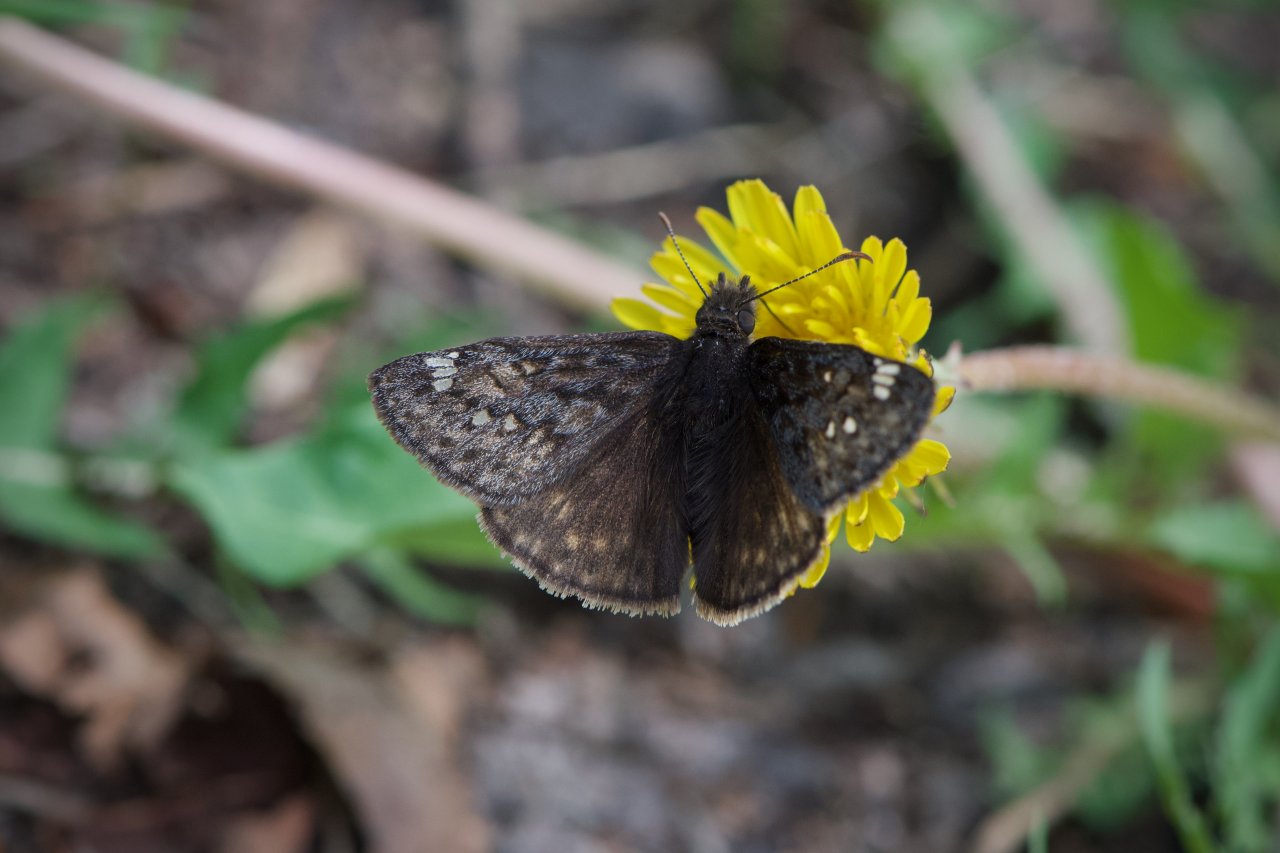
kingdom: Animalia
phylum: Arthropoda
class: Insecta
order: Lepidoptera
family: Hesperiidae
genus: Gesta
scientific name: Gesta
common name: Juvenal's Duskywing
